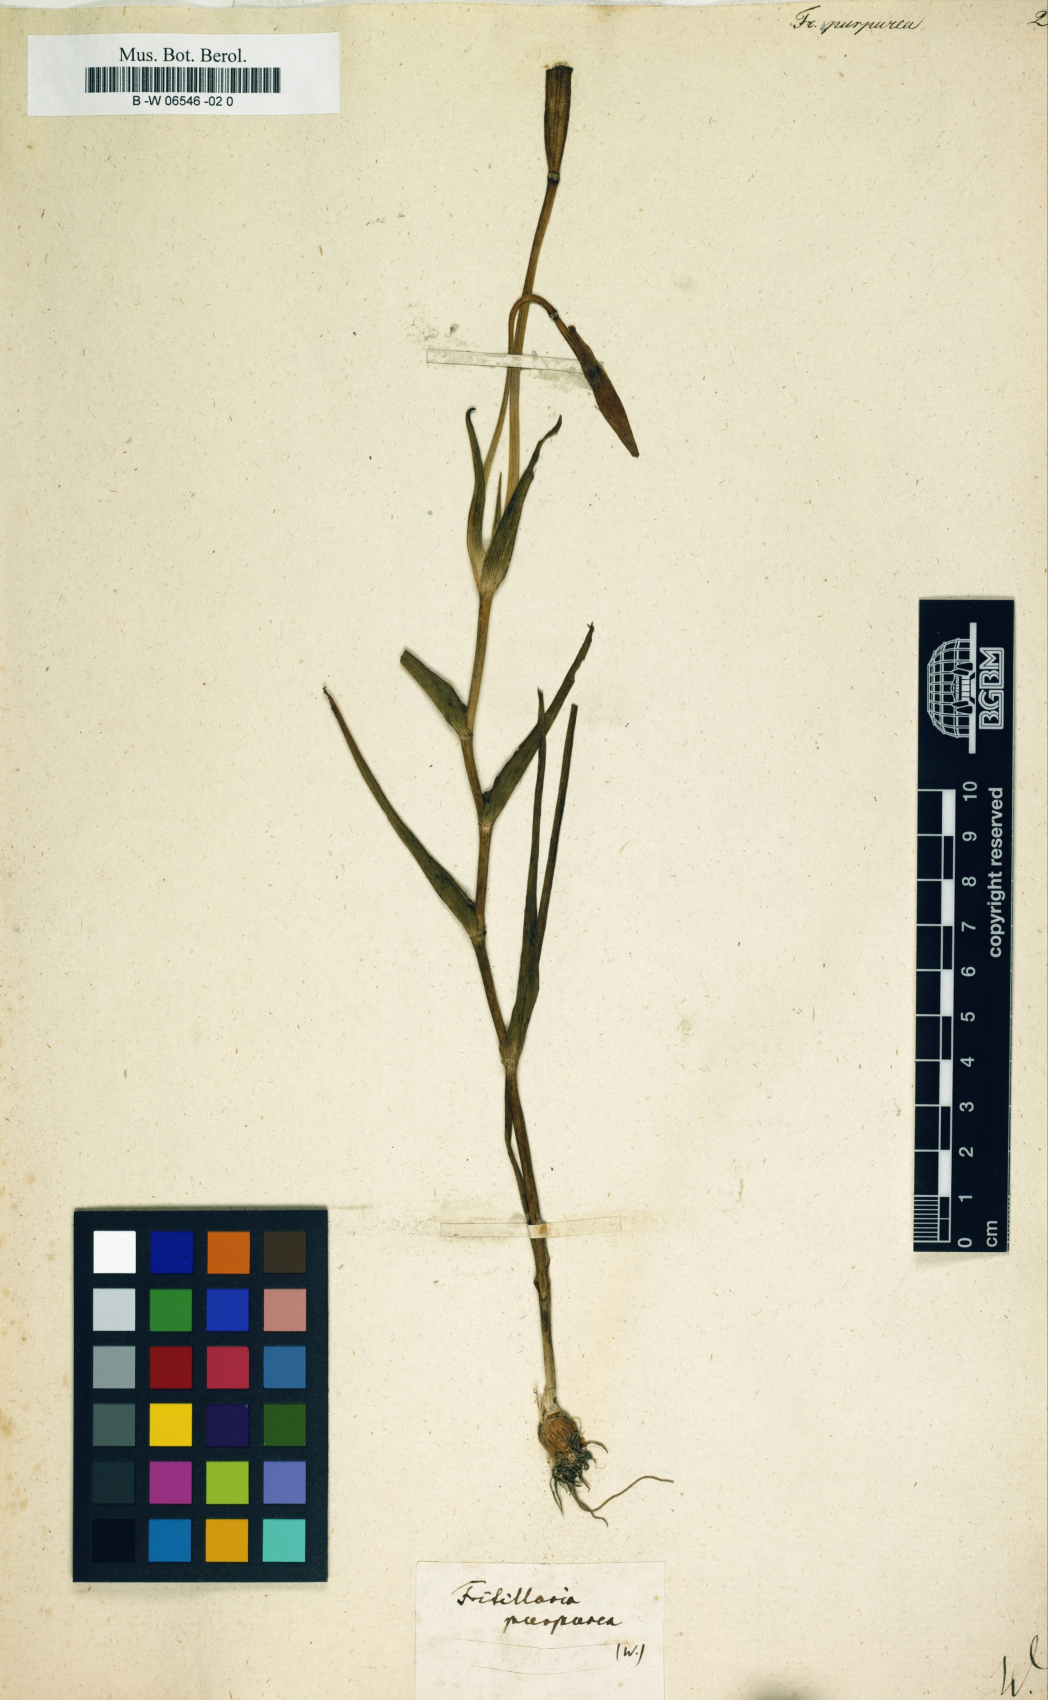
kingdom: Plantae
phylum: Tracheophyta
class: Liliopsida
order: Liliales
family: Liliaceae
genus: Calochortus
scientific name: Calochortus purpureus
